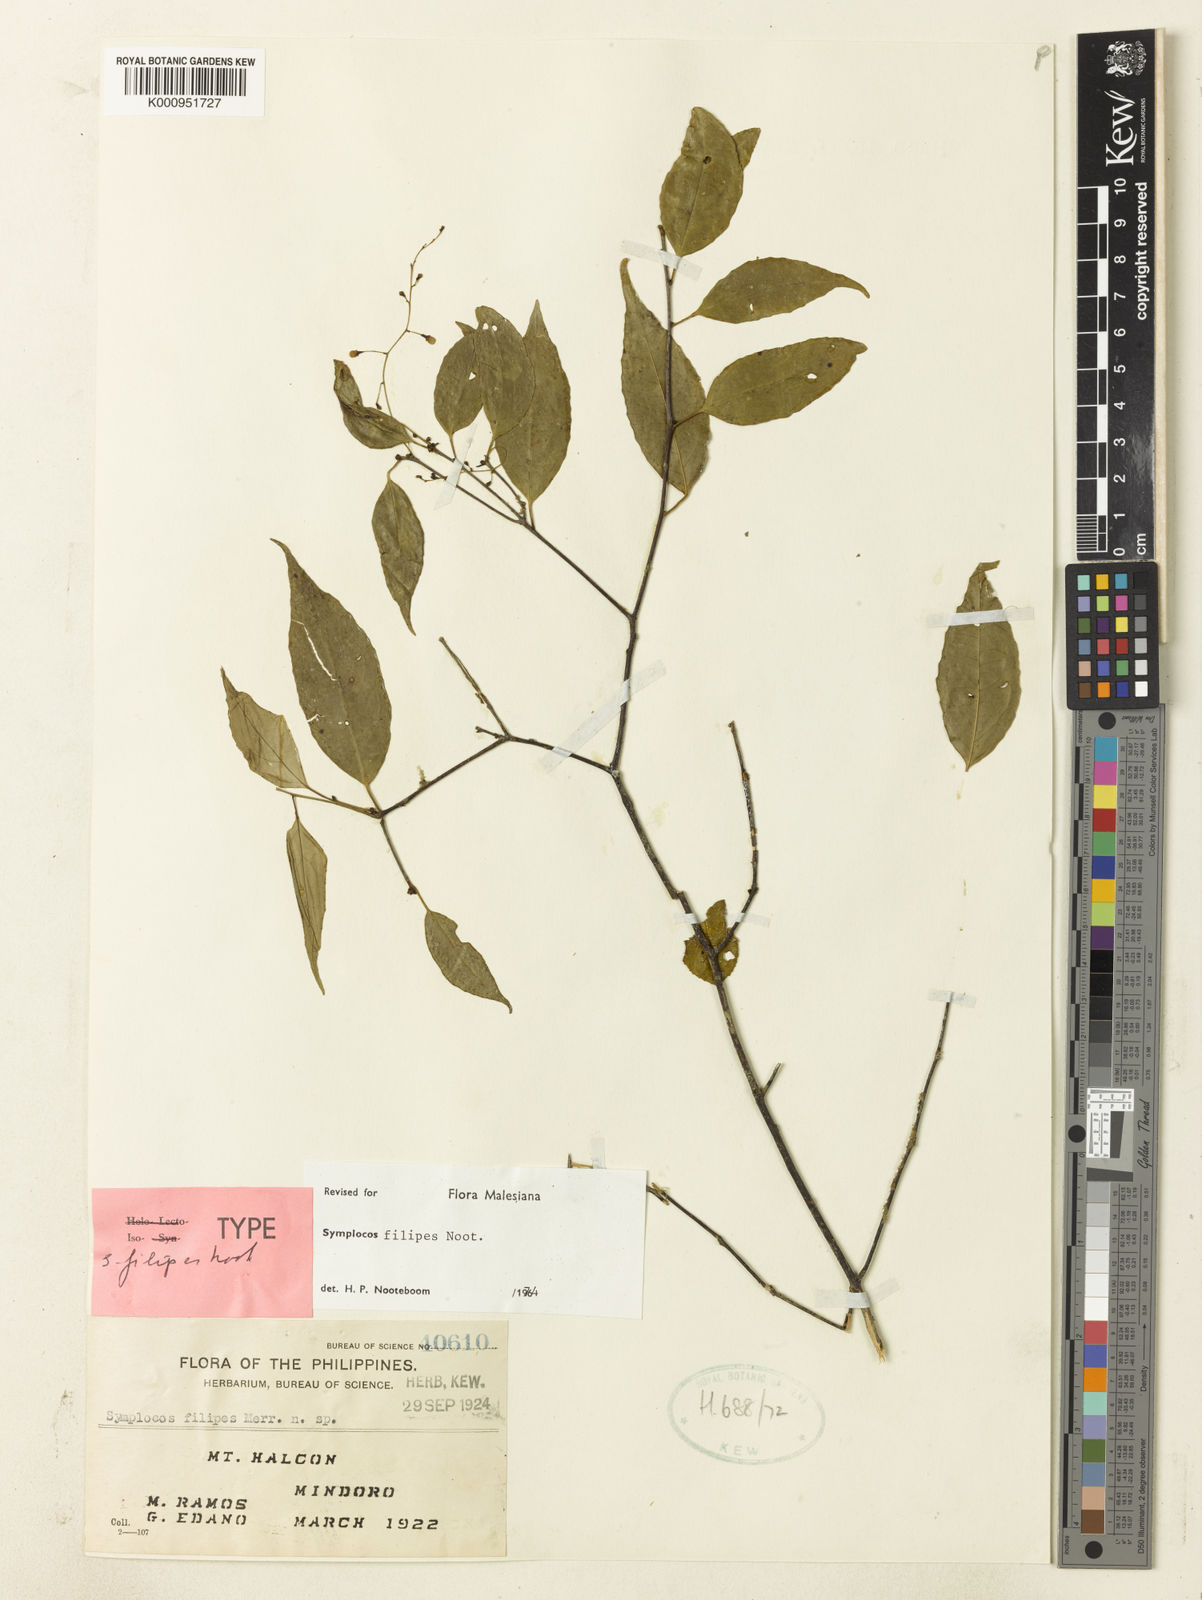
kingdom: Plantae
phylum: Tracheophyta
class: Magnoliopsida
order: Ericales
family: Symplocaceae
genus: Symplocos
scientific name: Symplocos filipes
